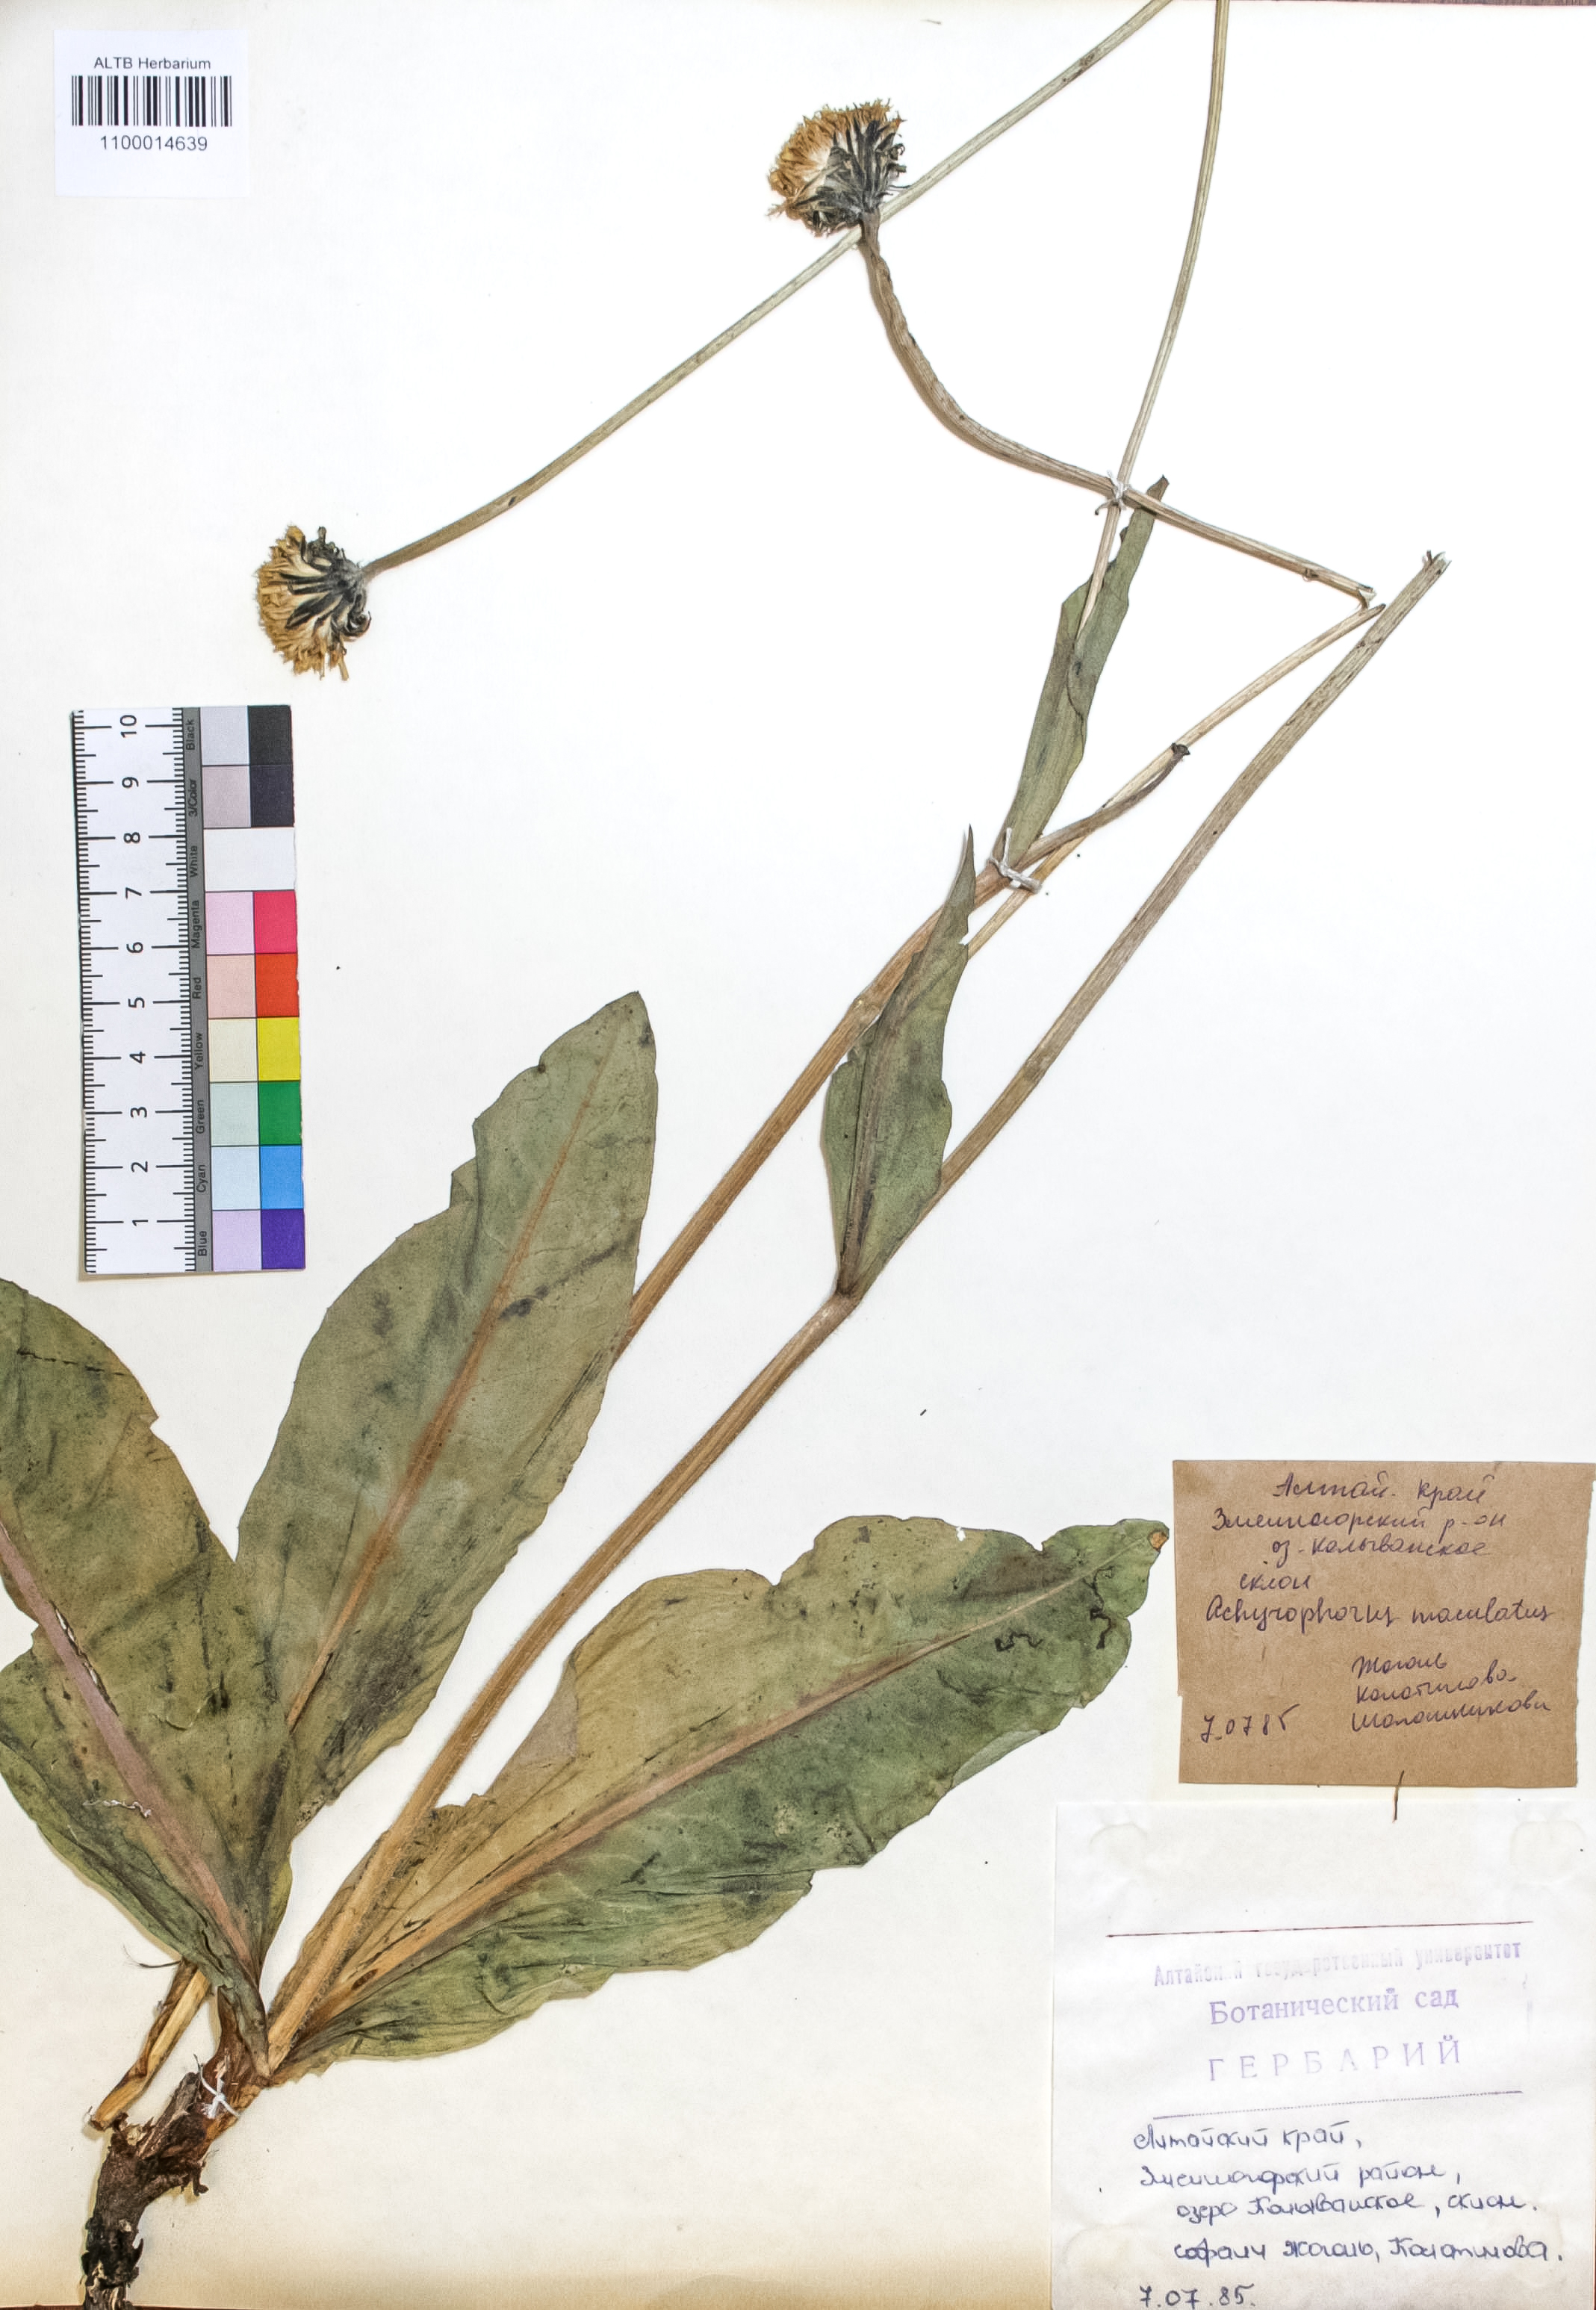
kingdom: Plantae
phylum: Tracheophyta
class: Magnoliopsida
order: Asterales
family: Asteraceae
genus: Trommsdorffia
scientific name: Trommsdorffia maculata
